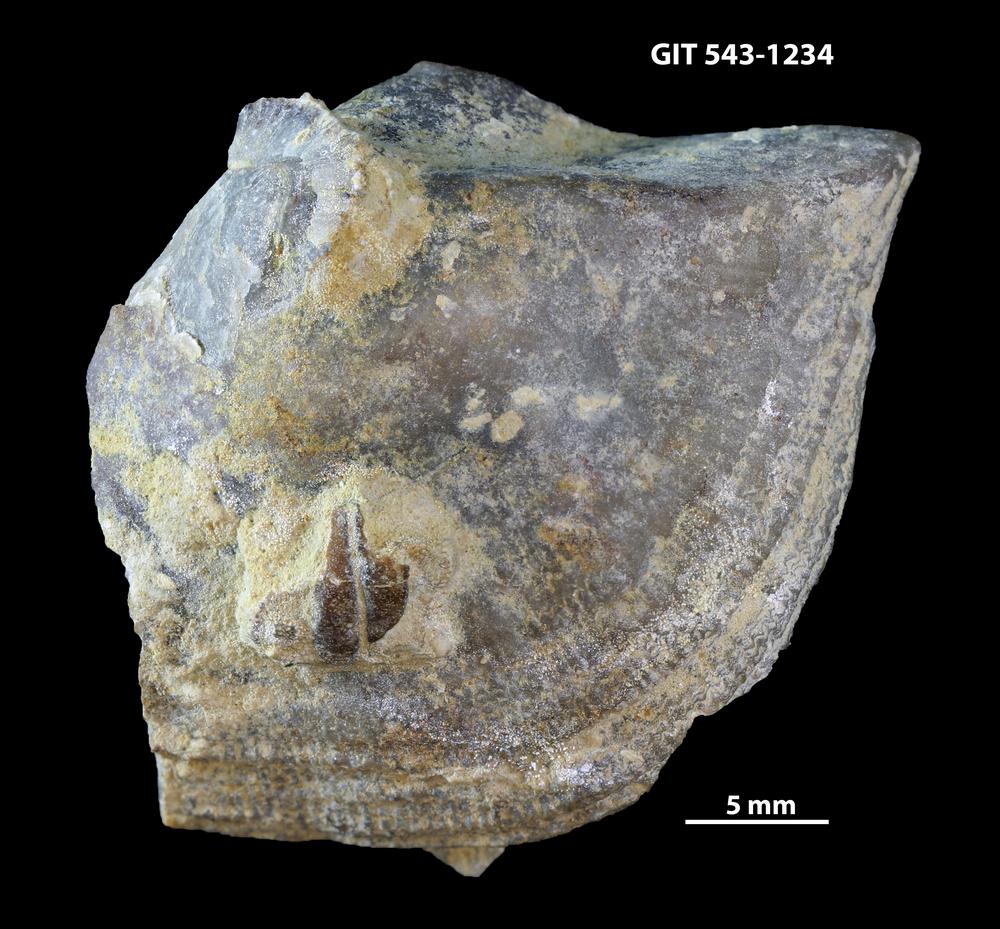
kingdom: Animalia
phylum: Brachiopoda
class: Rhynchonellata
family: Clitambonitidae
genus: Ilmarinia
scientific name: Ilmarinia
